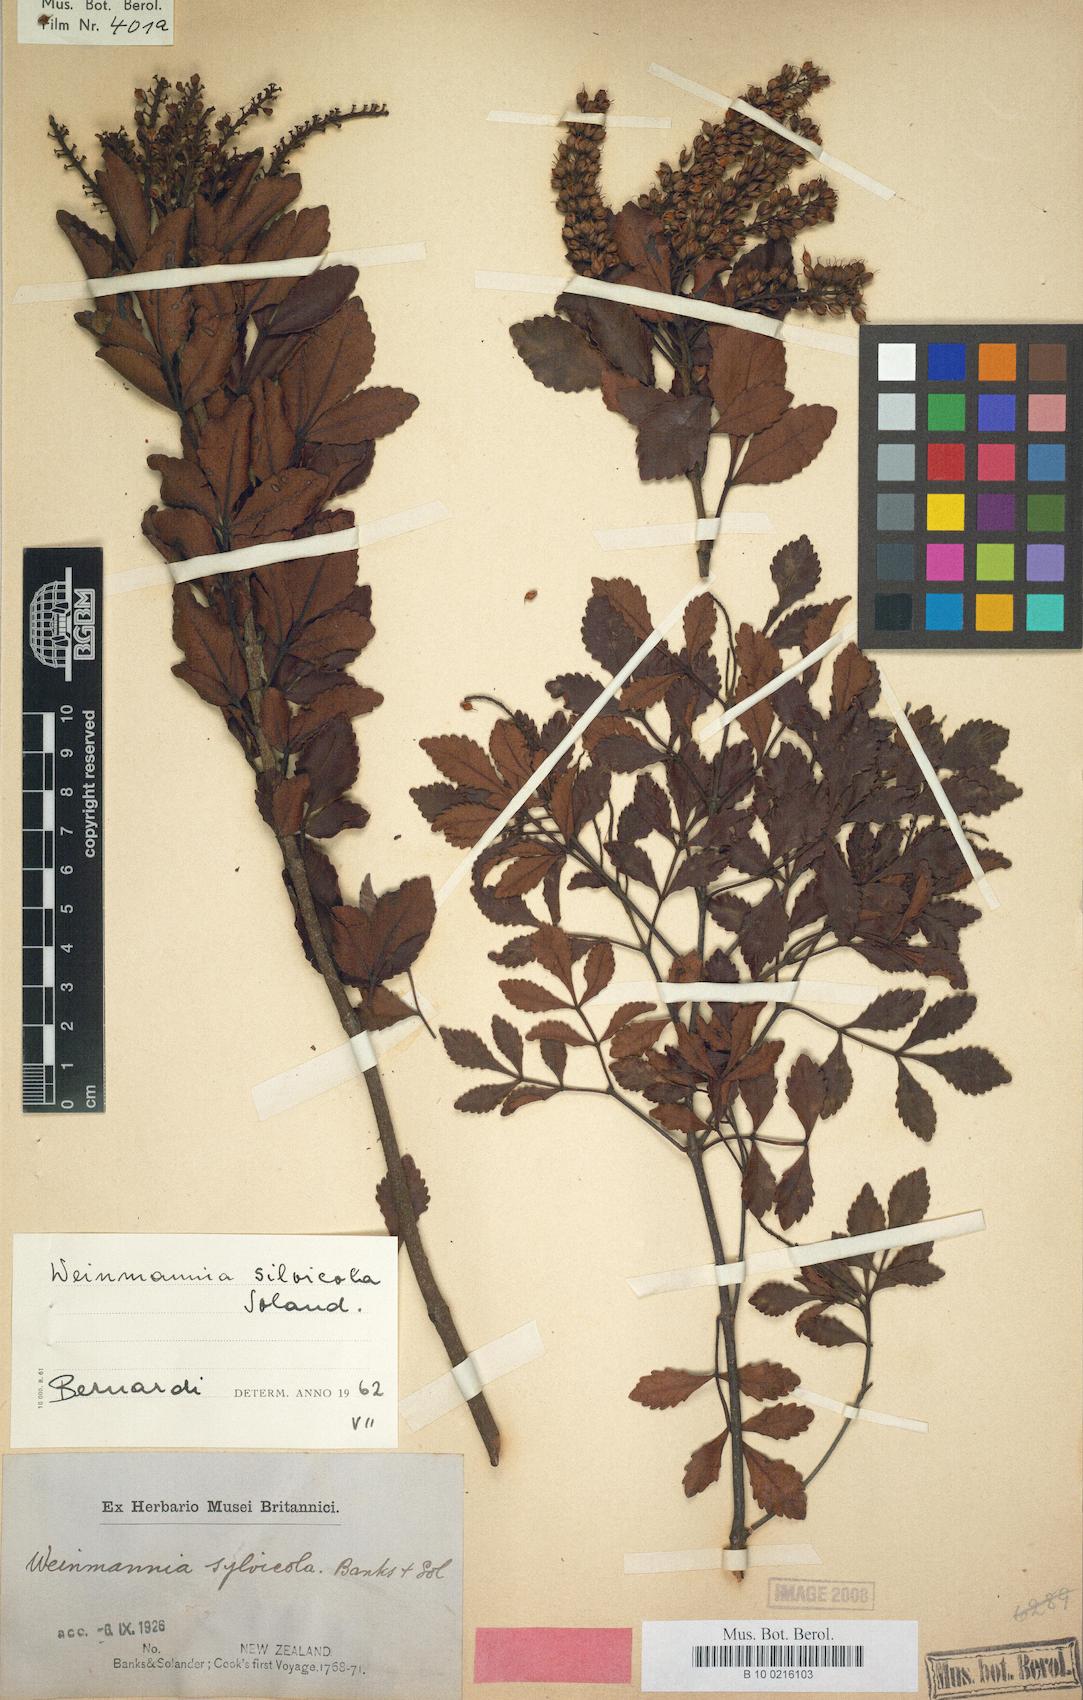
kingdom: Plantae
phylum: Tracheophyta
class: Magnoliopsida
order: Oxalidales
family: Cunoniaceae
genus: Pterophylla
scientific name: Pterophylla sylvicola
